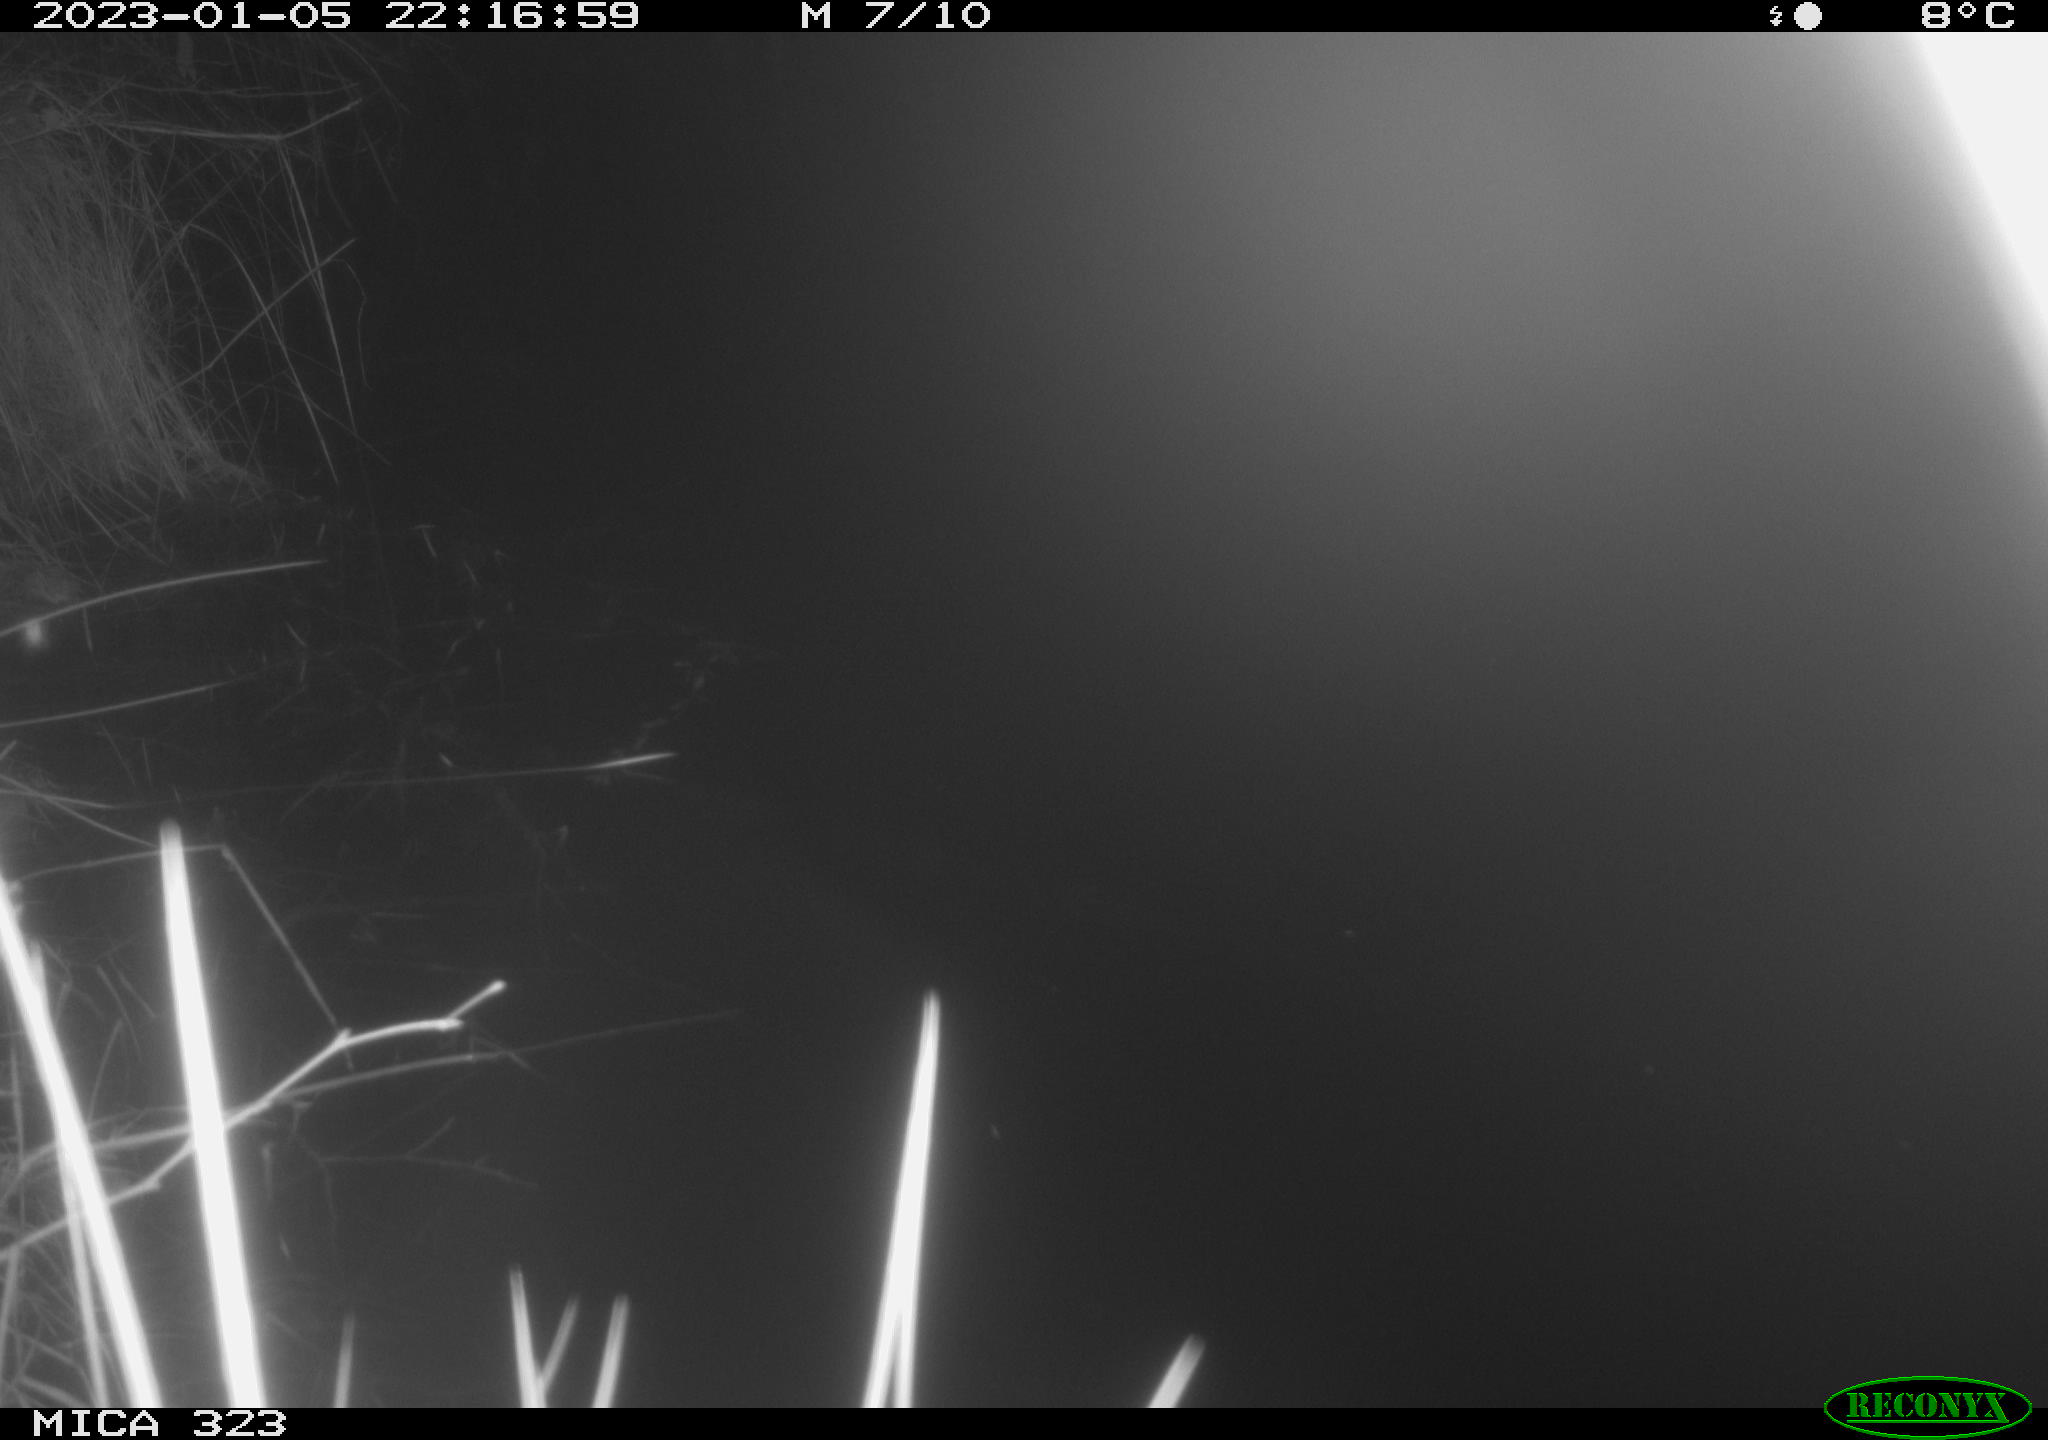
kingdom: Animalia
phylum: Chordata
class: Mammalia
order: Rodentia
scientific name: Rodentia
